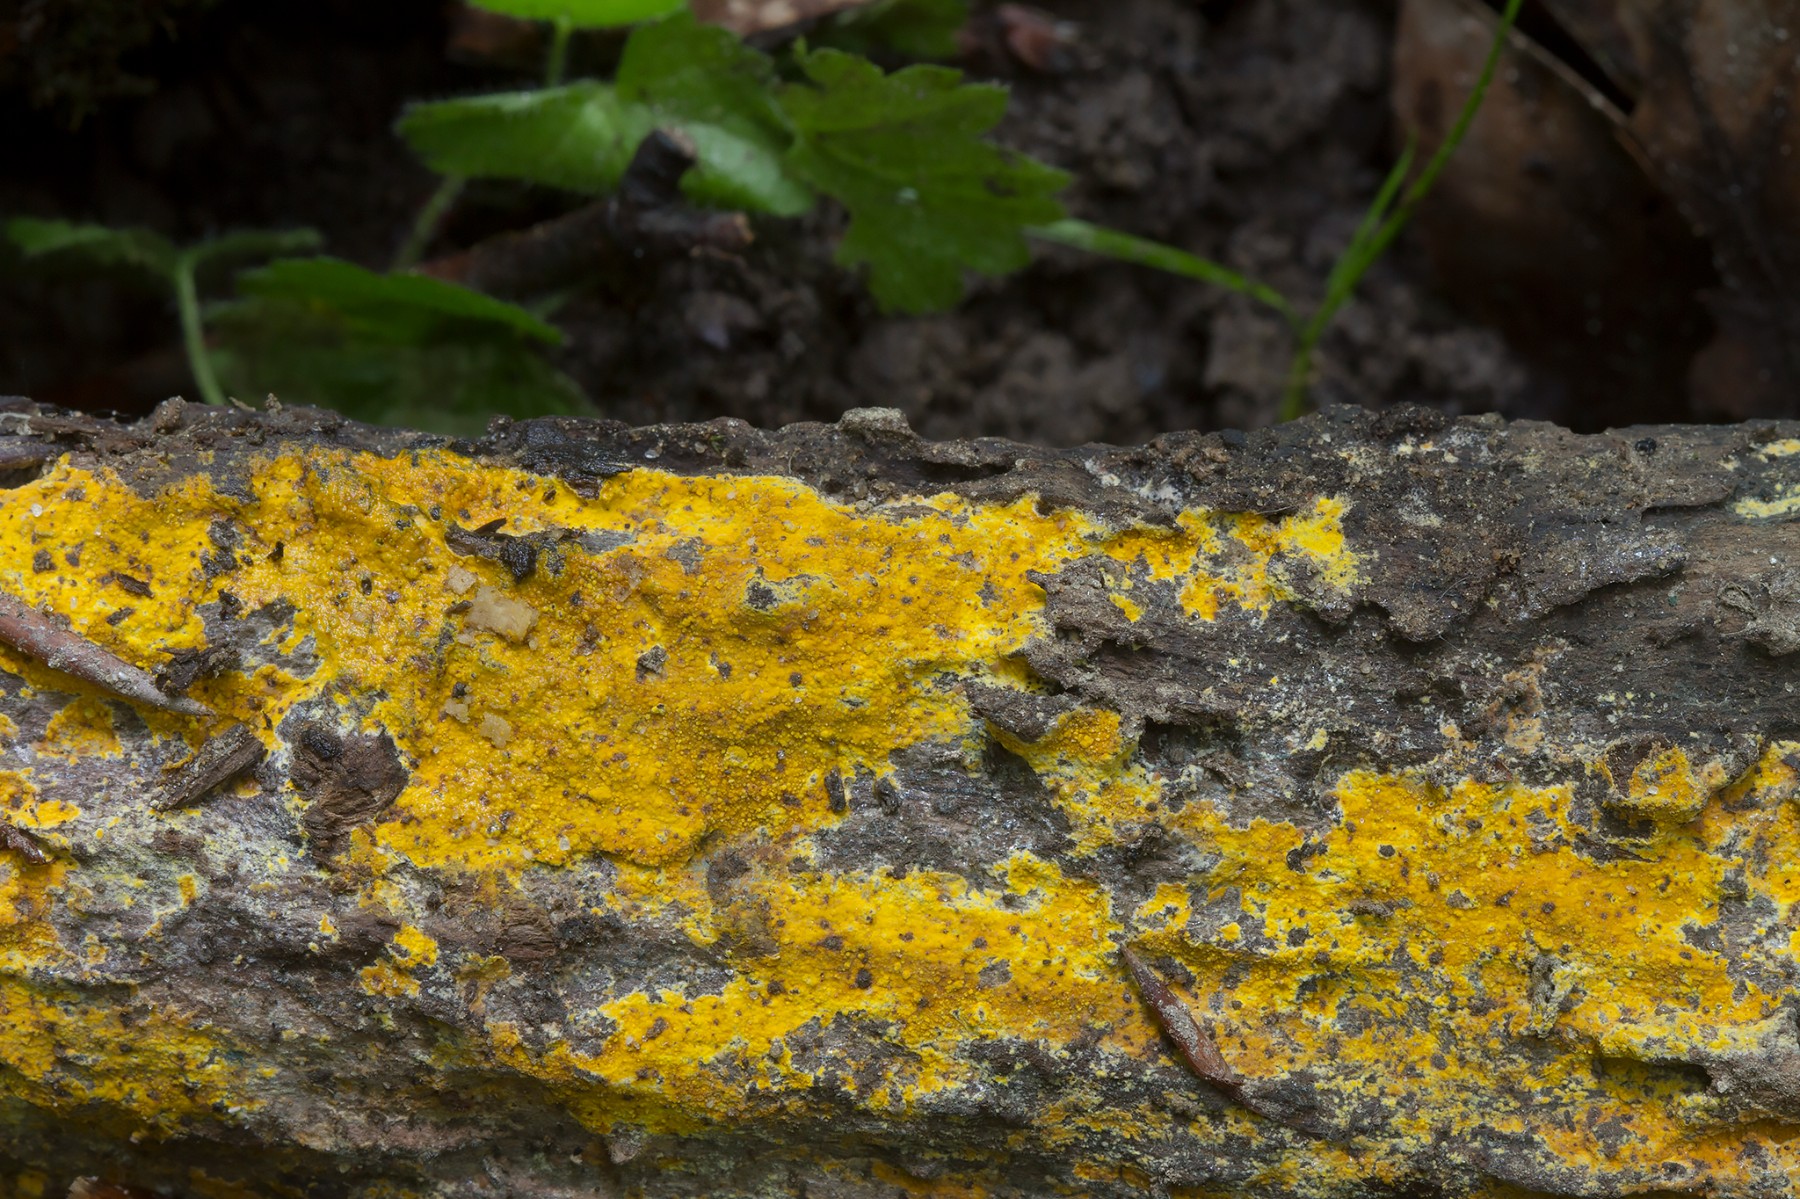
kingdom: Fungi
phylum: Basidiomycota
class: Agaricomycetes
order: Polyporales
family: Meruliaceae
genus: Phlebiodontia
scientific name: Phlebiodontia subochracea
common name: svovl-åresvamp
